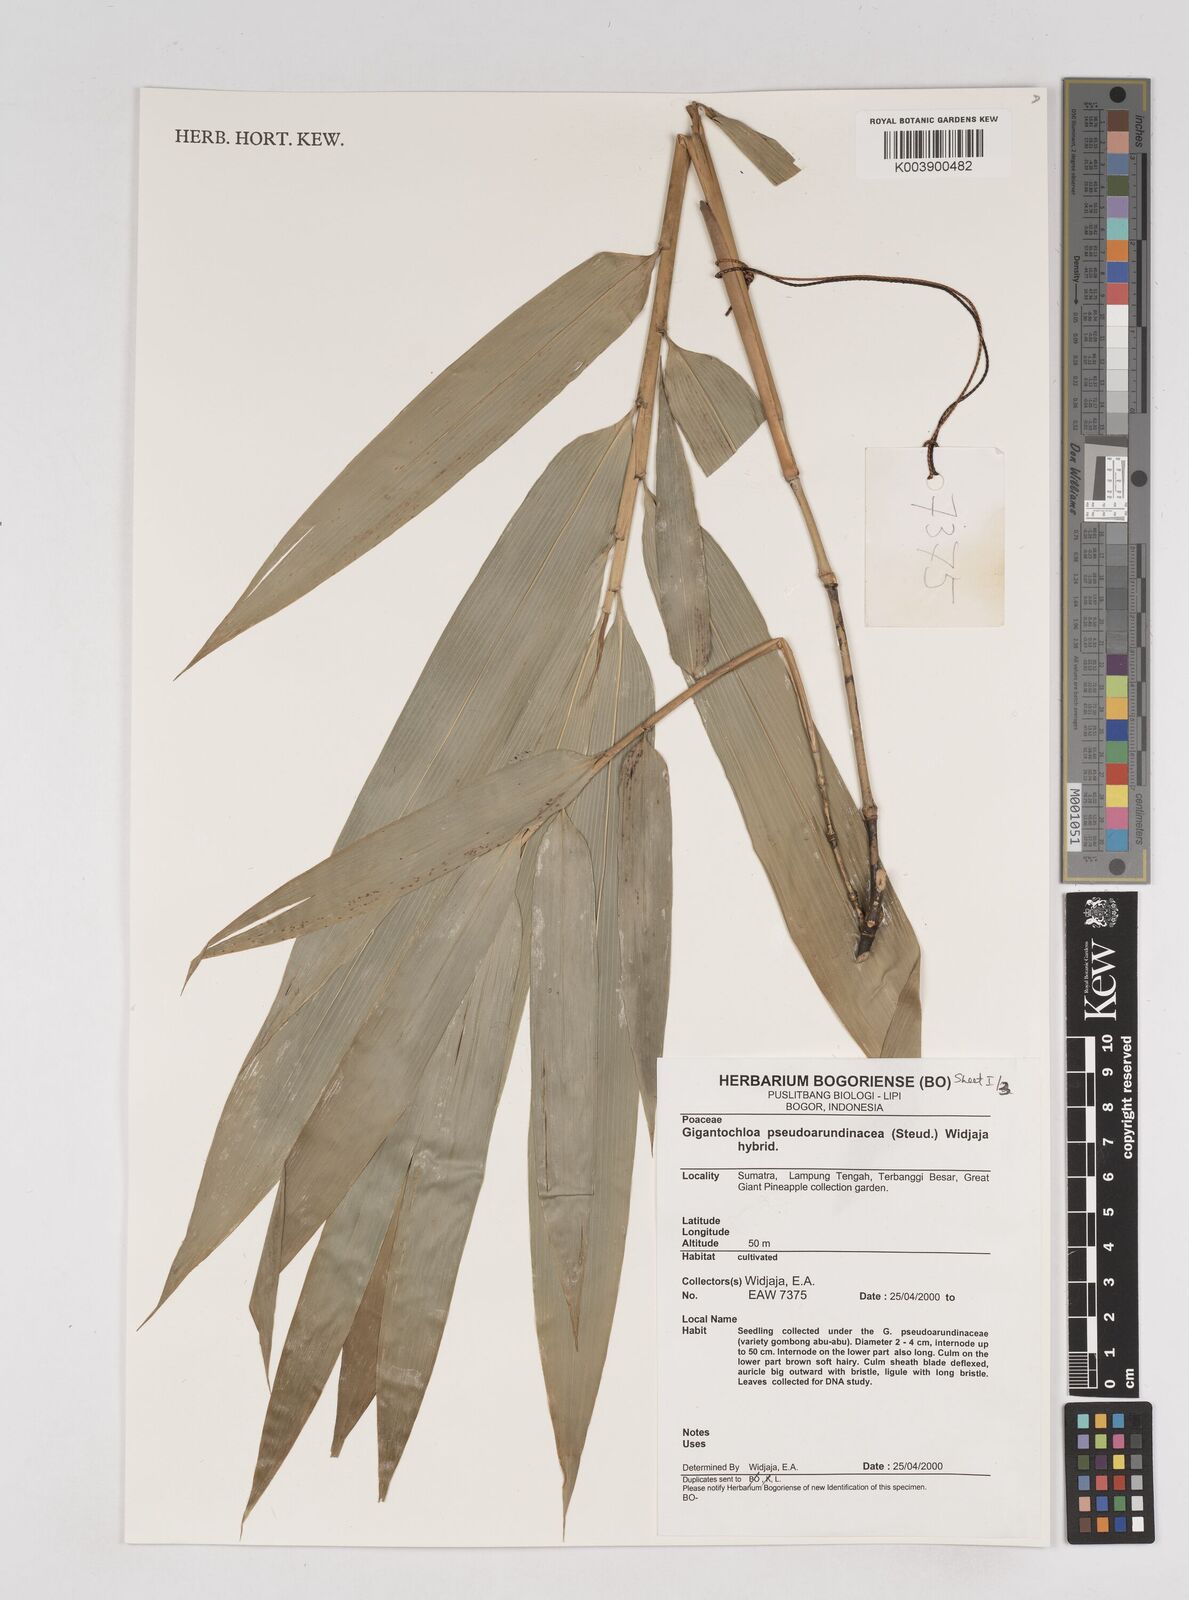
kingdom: Plantae
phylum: Tracheophyta
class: Liliopsida
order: Poales
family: Poaceae
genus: Gigantochloa
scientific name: Gigantochloa verticillata
